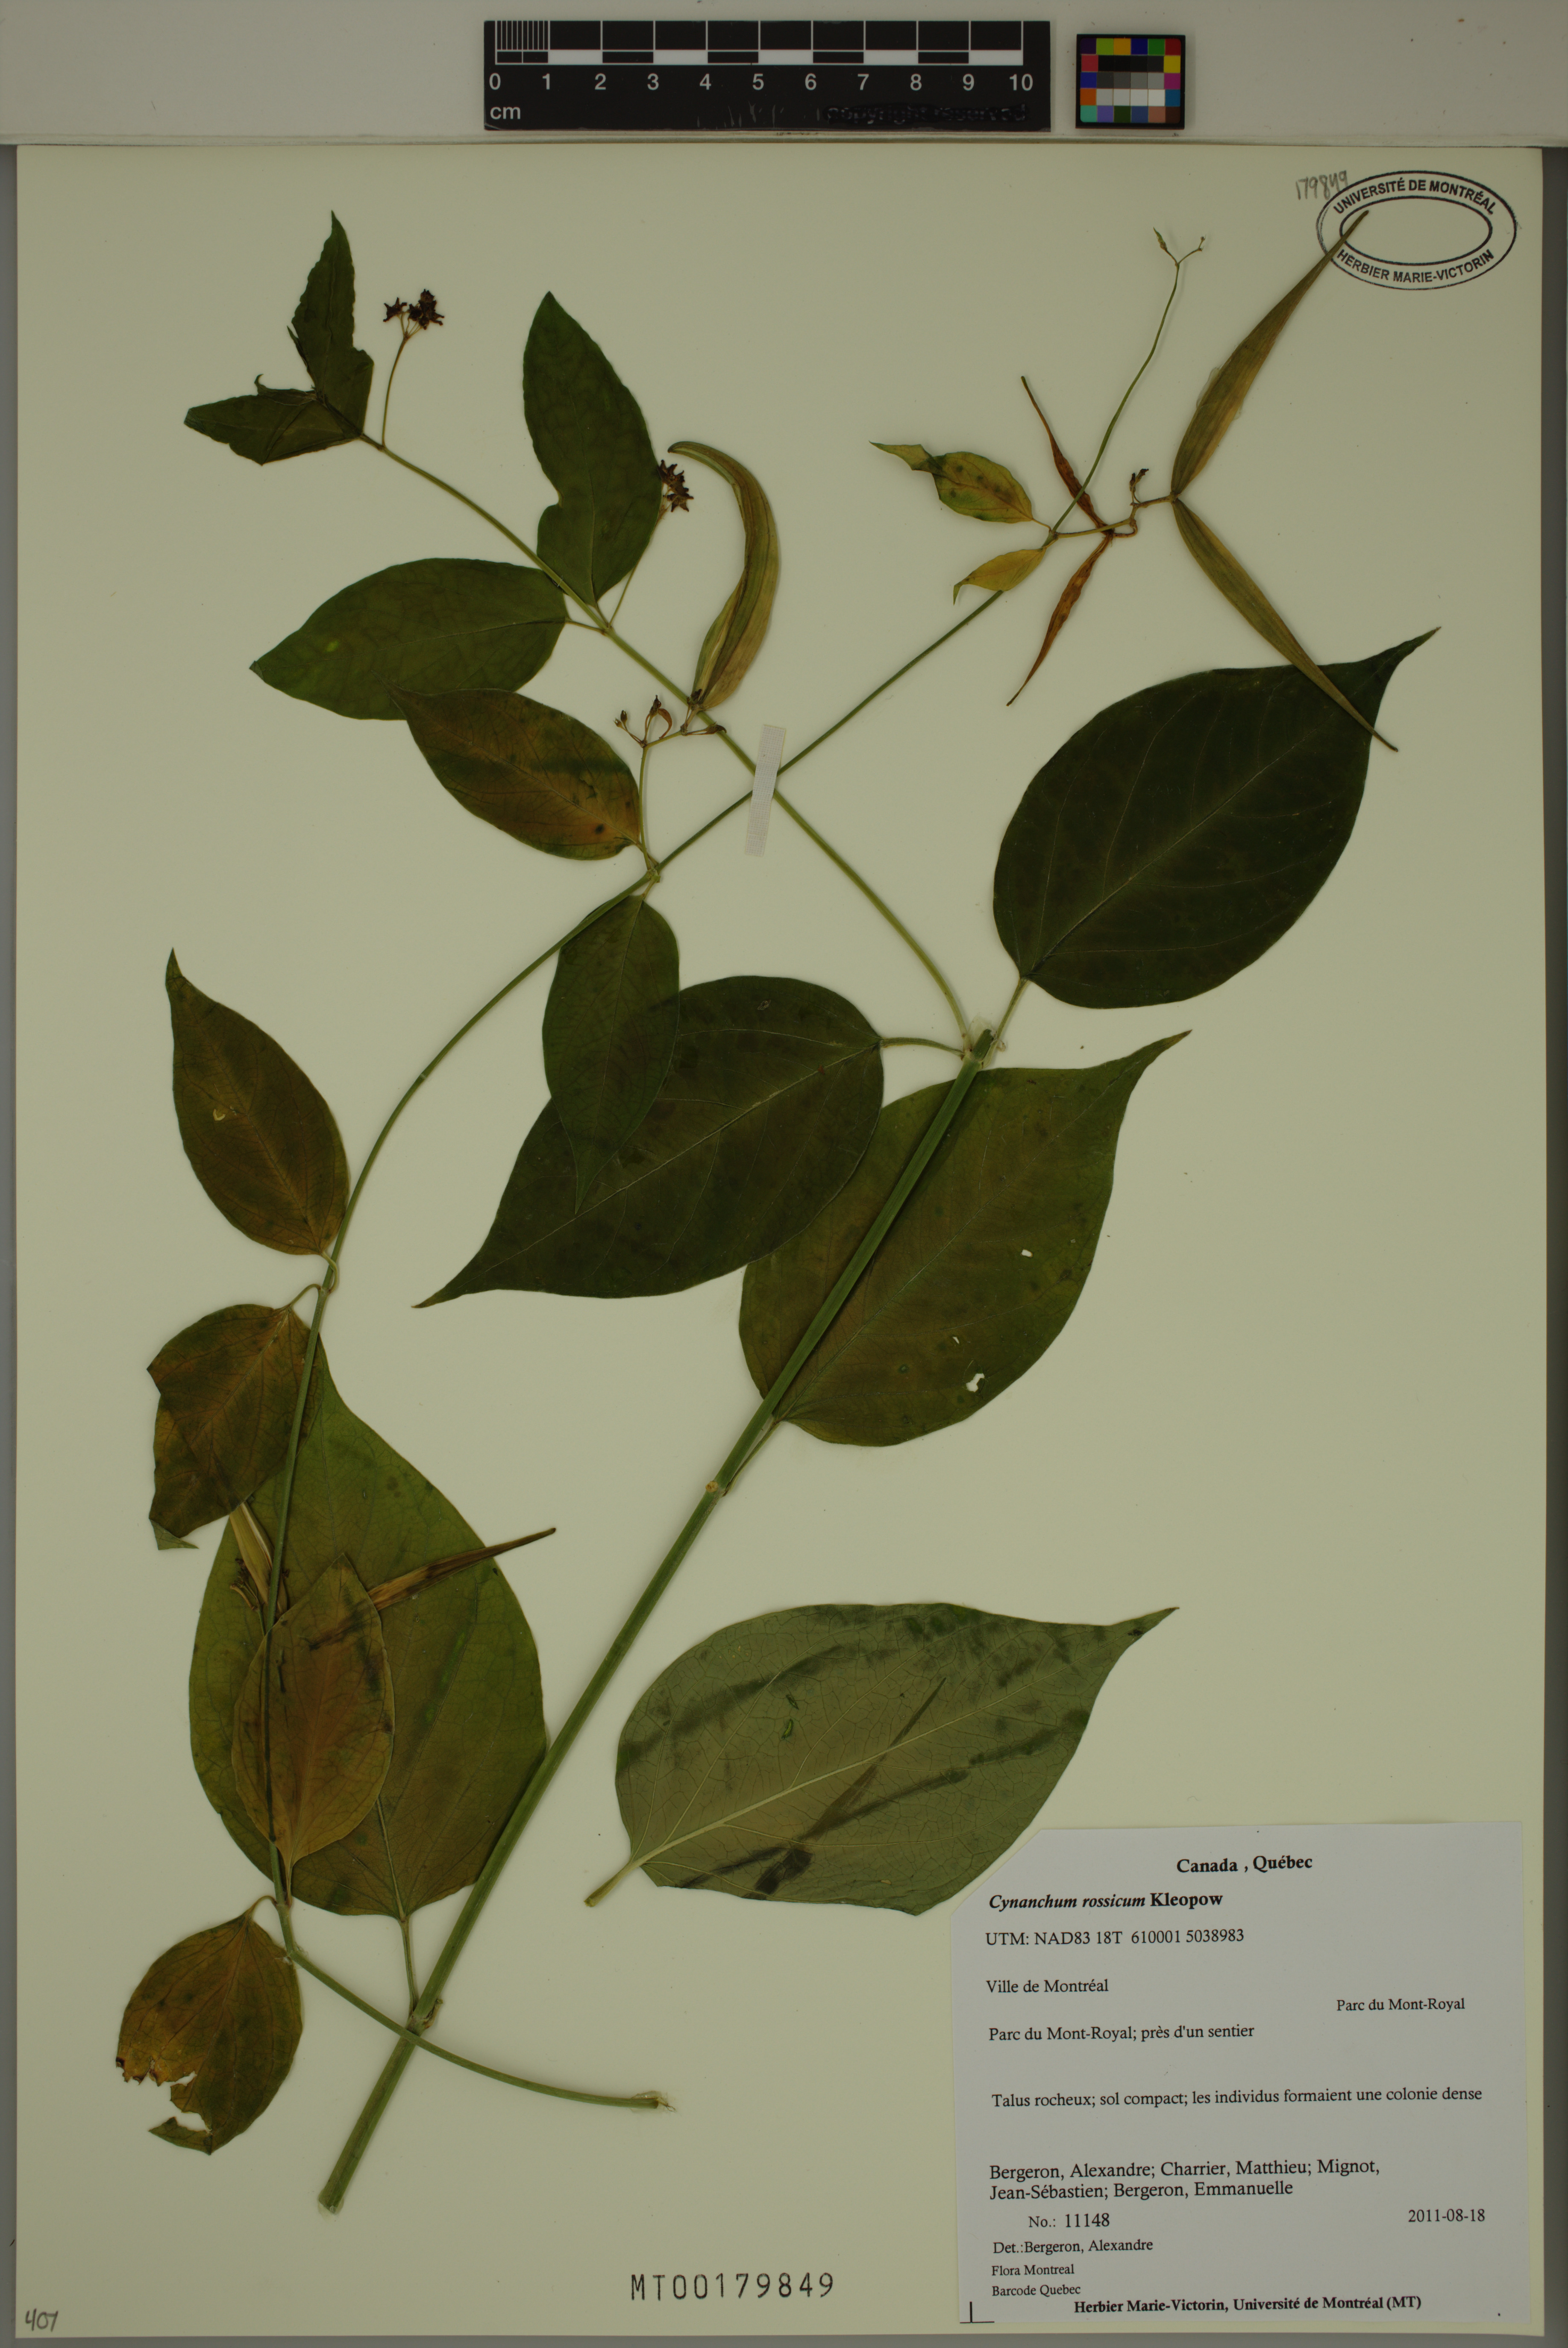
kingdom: Plantae
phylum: Tracheophyta
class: Magnoliopsida
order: Gentianales
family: Apocynaceae
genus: Vincetoxicum
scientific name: Vincetoxicum rossicum
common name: Dog-strangling vine
